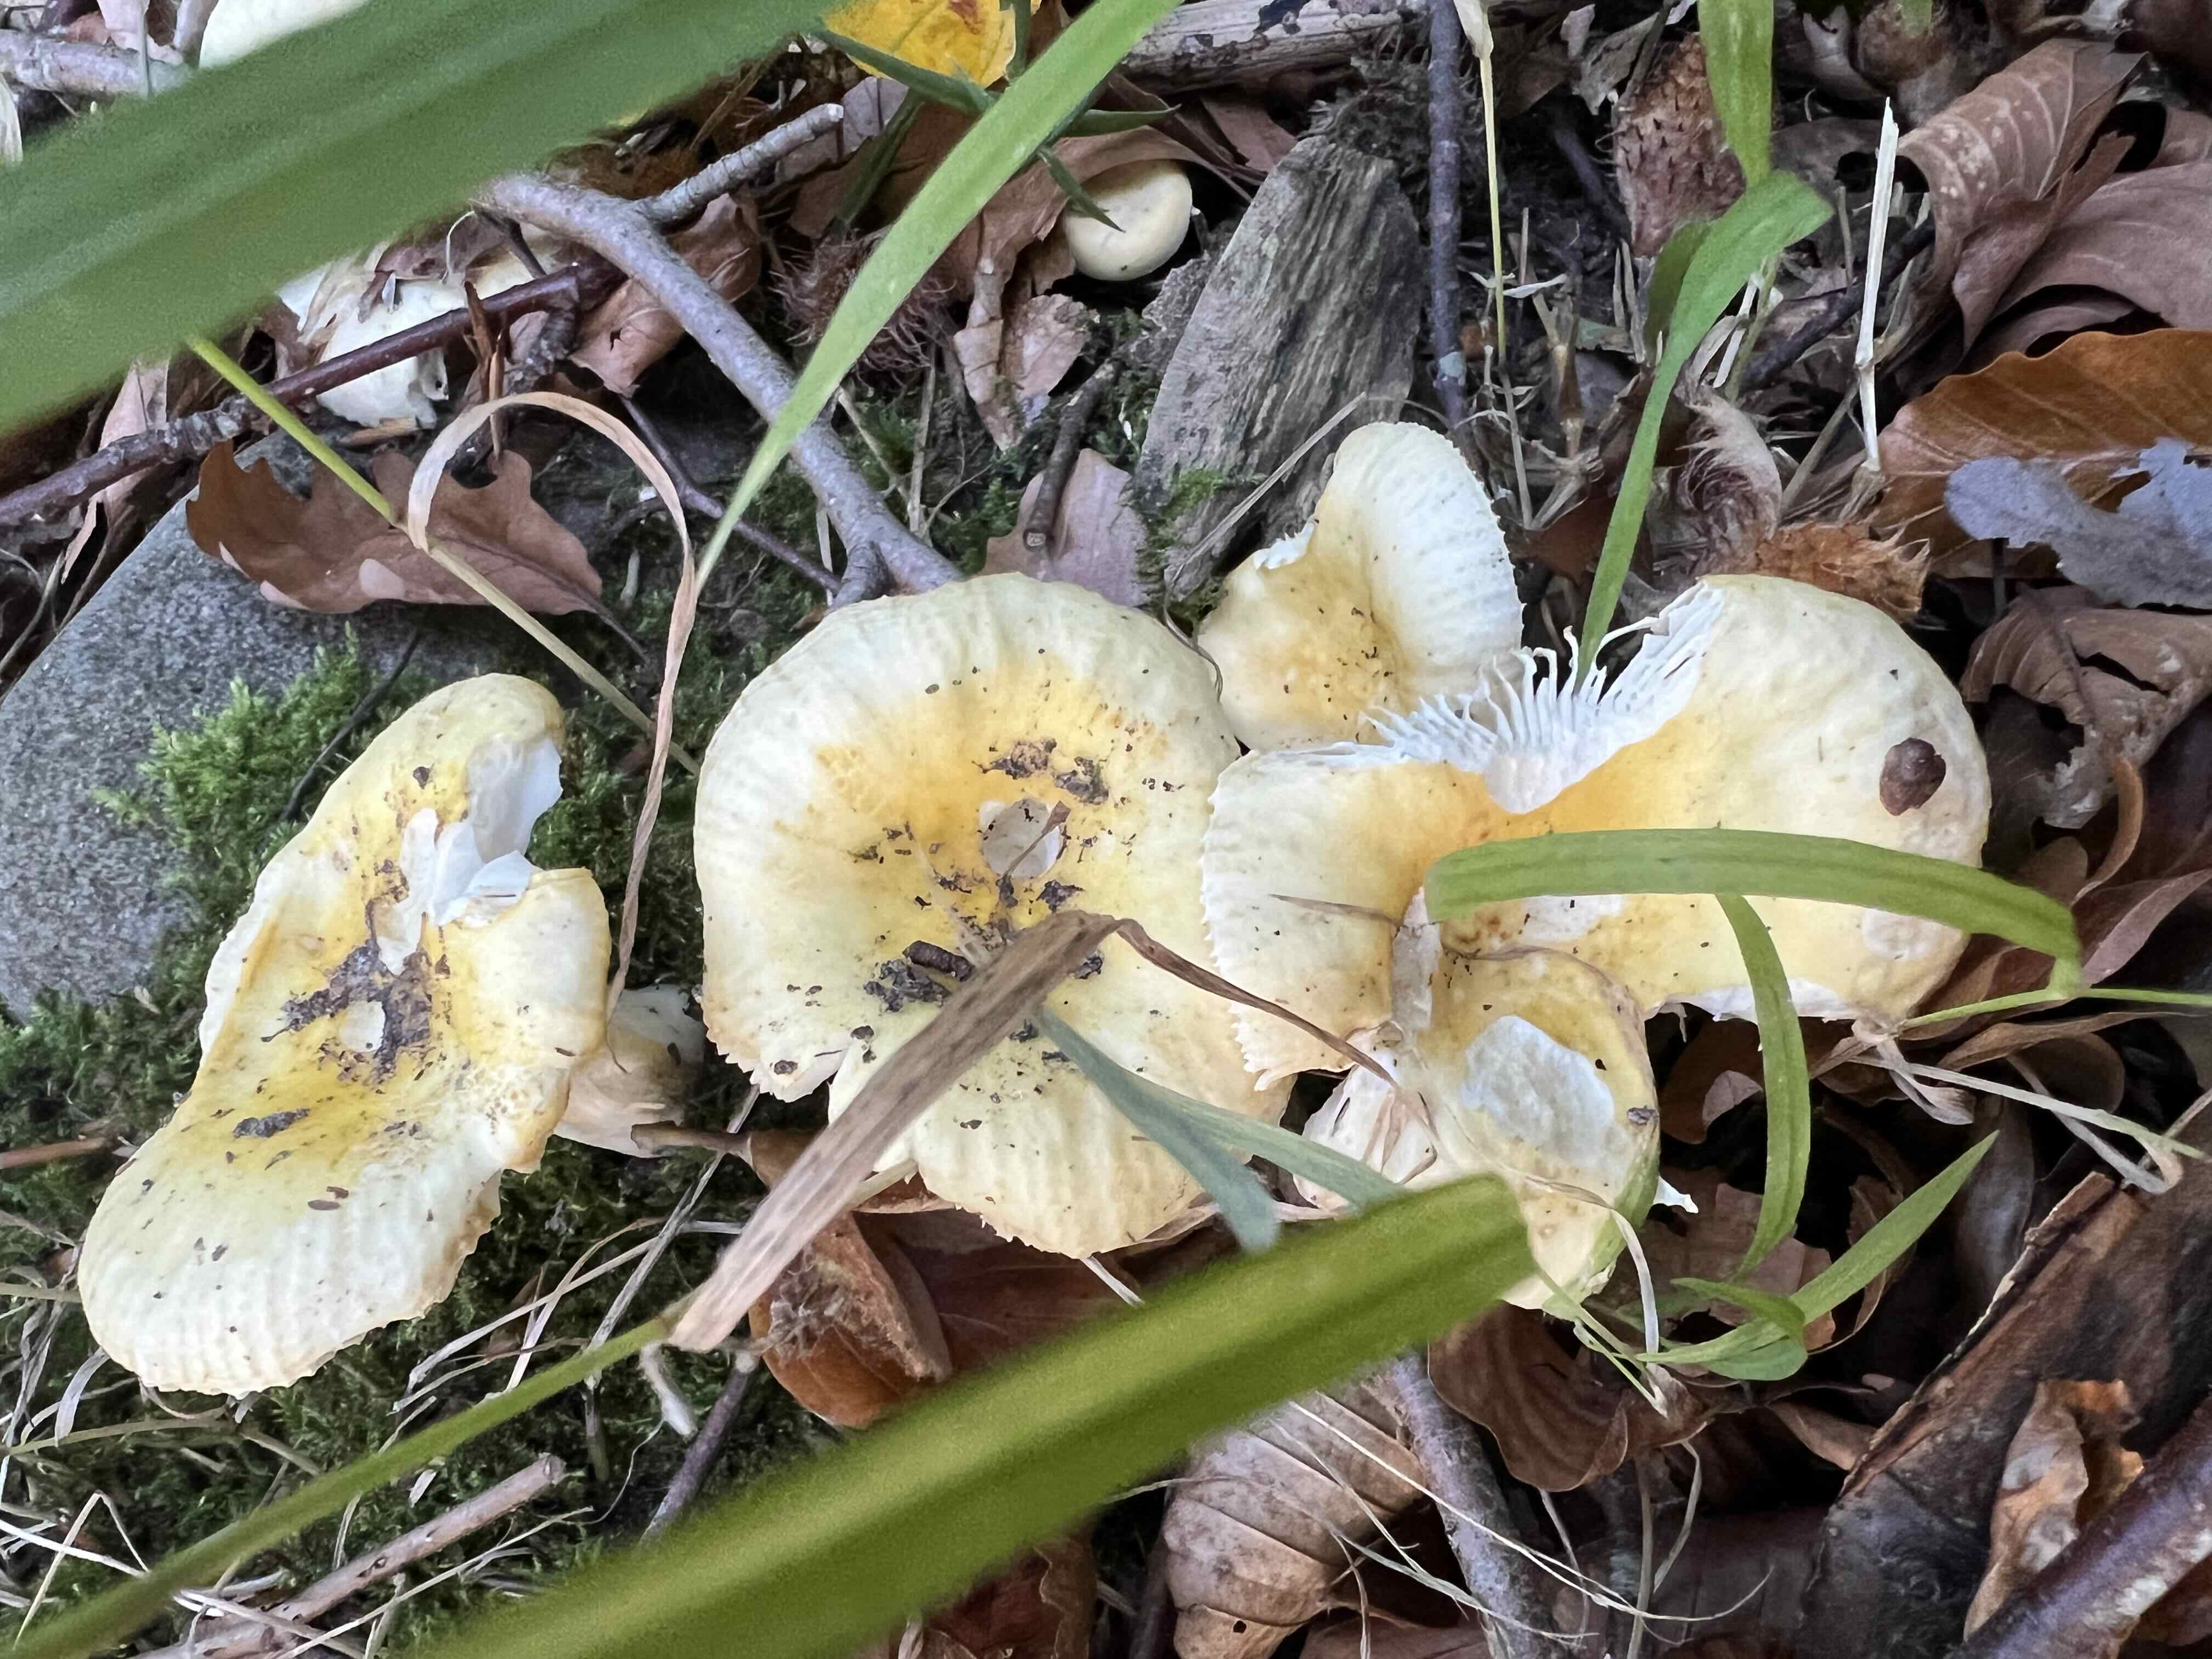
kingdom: Fungi
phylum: Basidiomycota
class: Agaricomycetes
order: Russulales
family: Russulaceae
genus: Russula
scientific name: Russula solaris
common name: sol-skørhat
